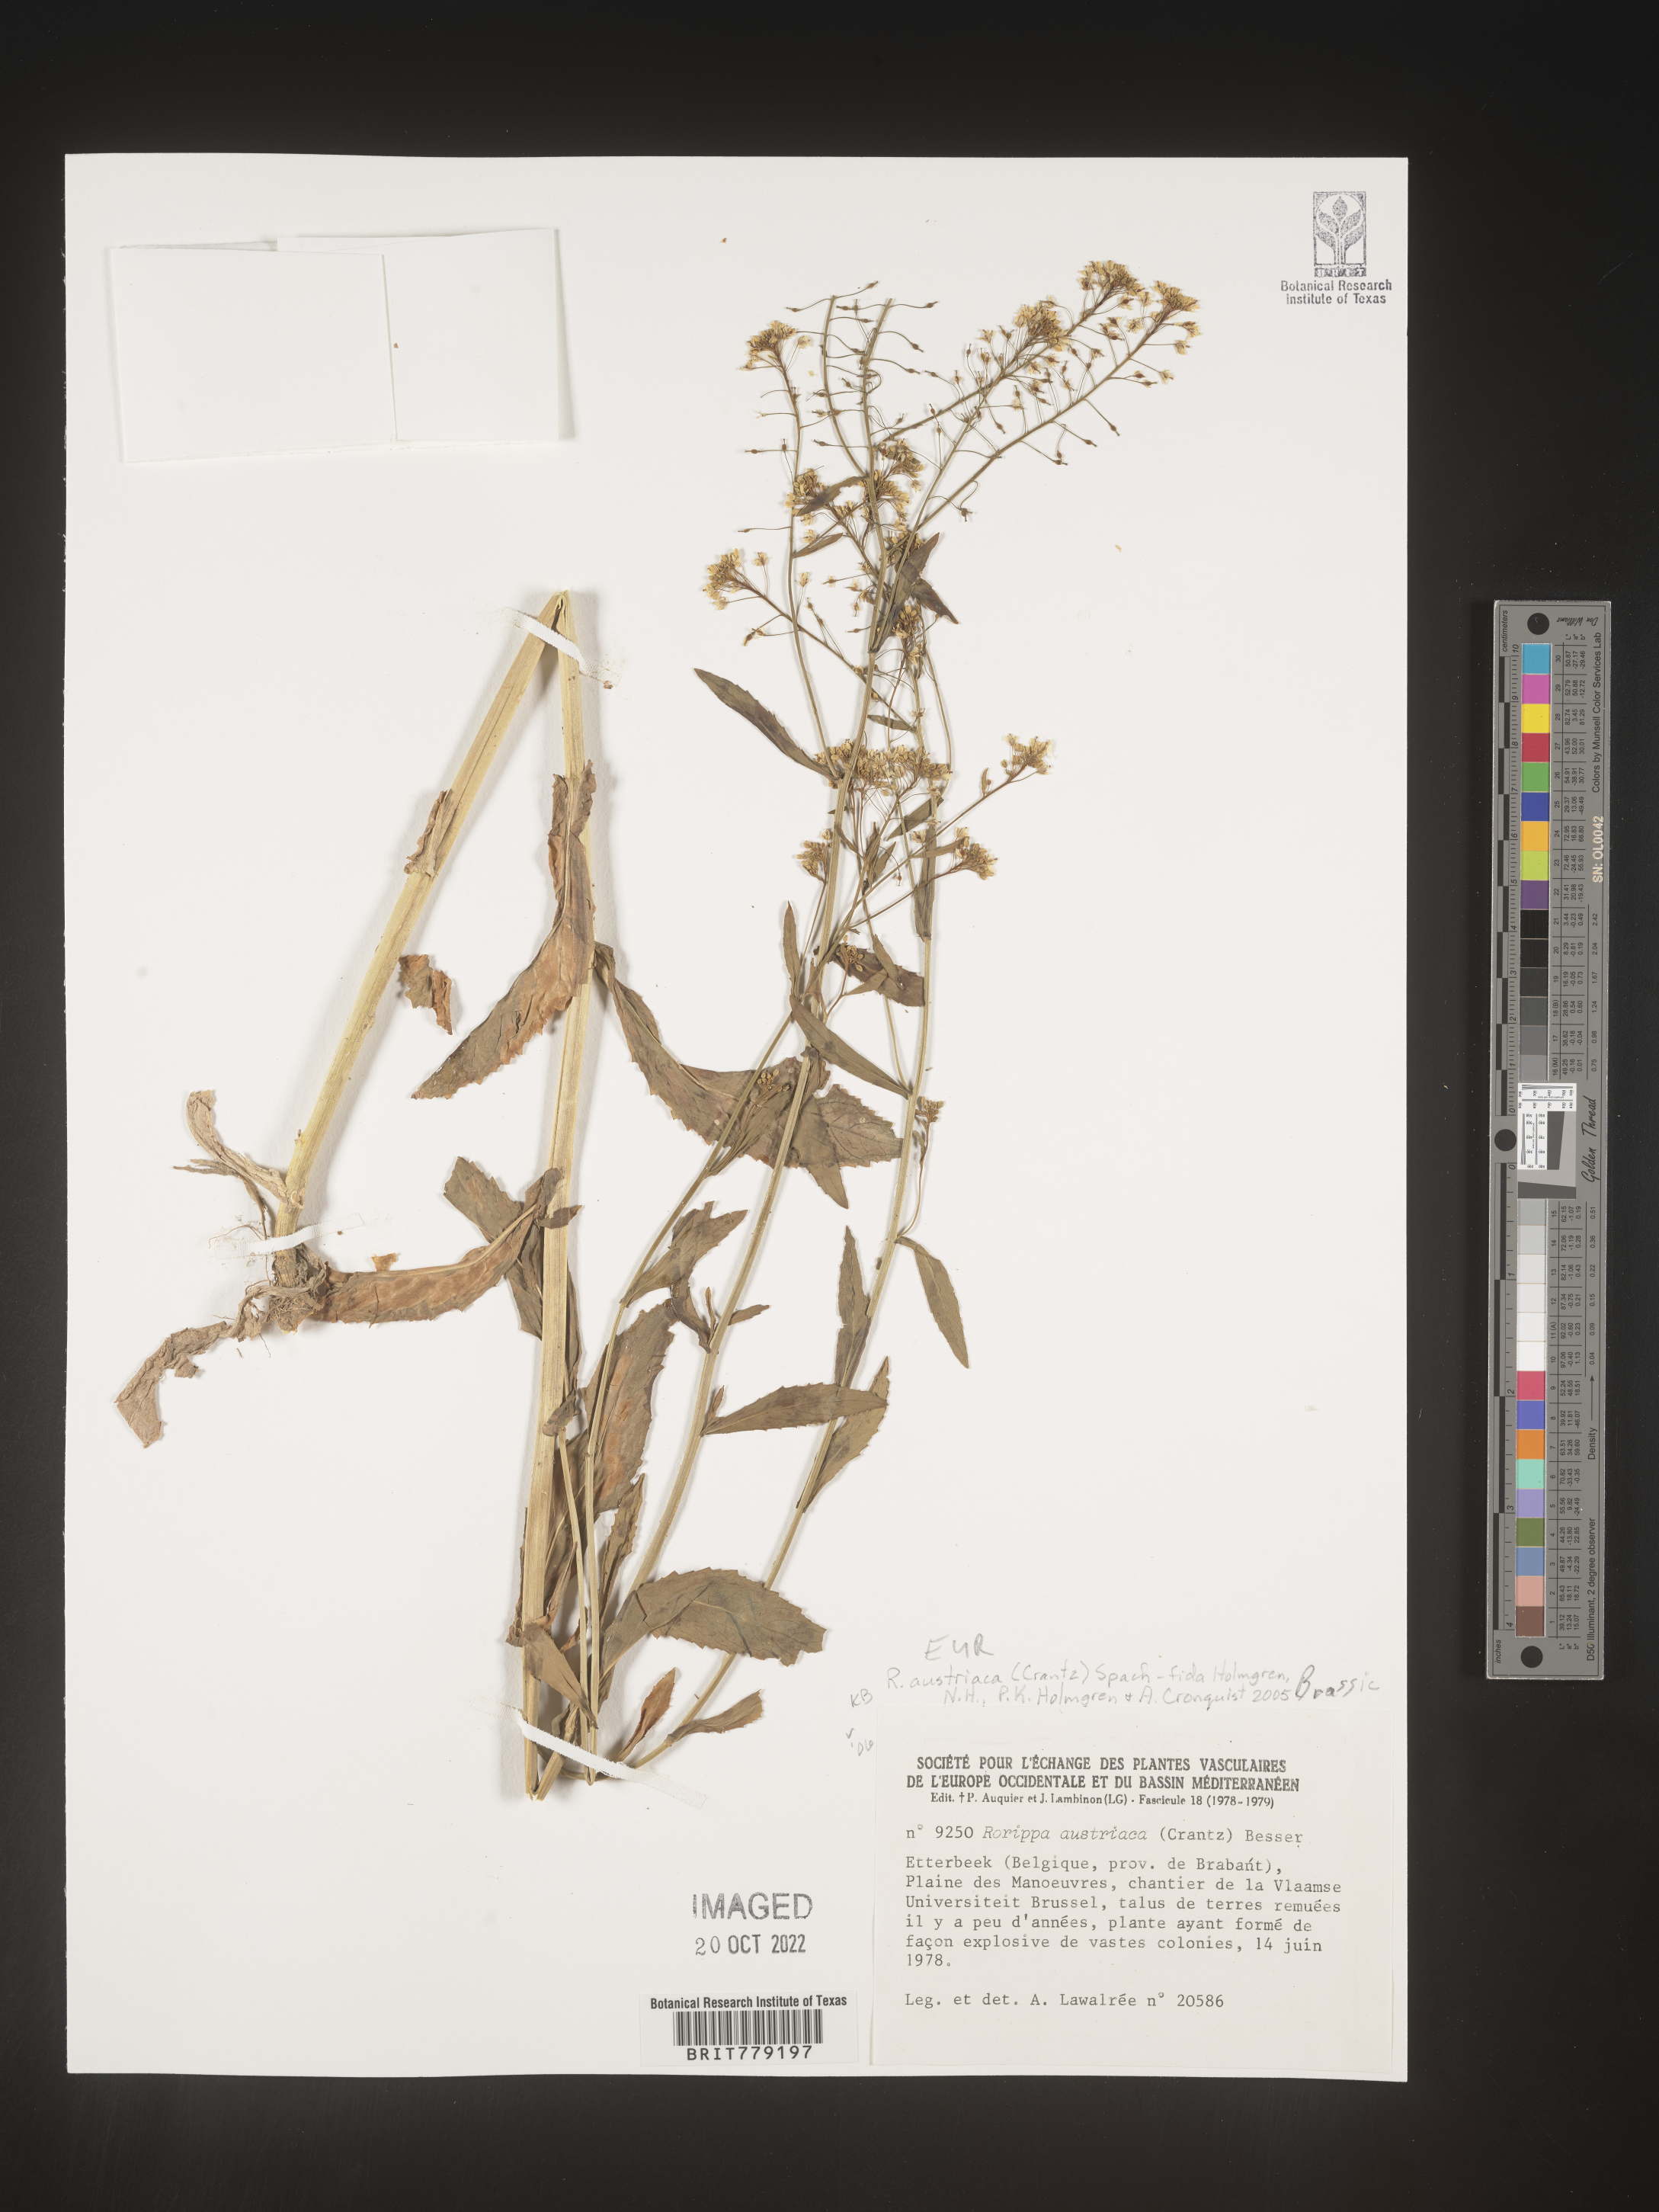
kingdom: Plantae
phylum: Tracheophyta
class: Magnoliopsida
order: Brassicales
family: Brassicaceae
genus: Rorippa
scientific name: Rorippa
